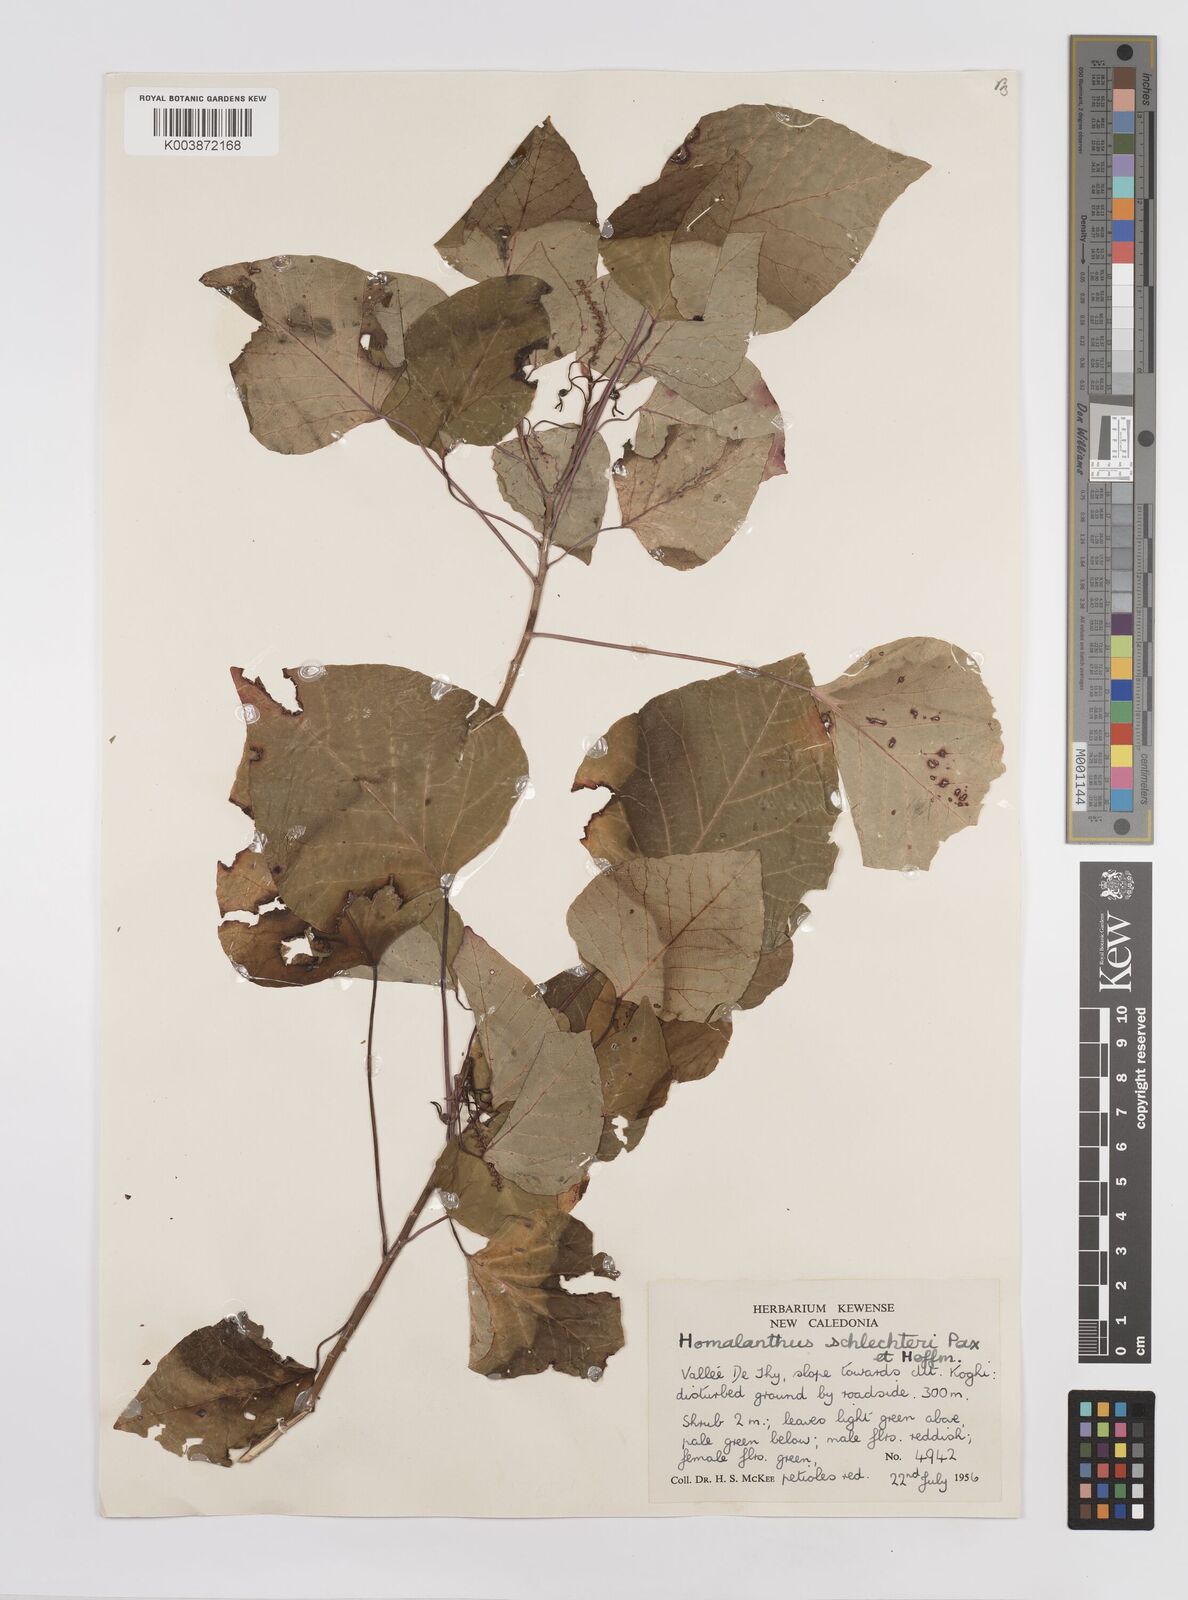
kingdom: Plantae
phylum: Tracheophyta
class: Magnoliopsida
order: Malpighiales
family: Euphorbiaceae
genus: Homalanthus
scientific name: Homalanthus schlechteri
